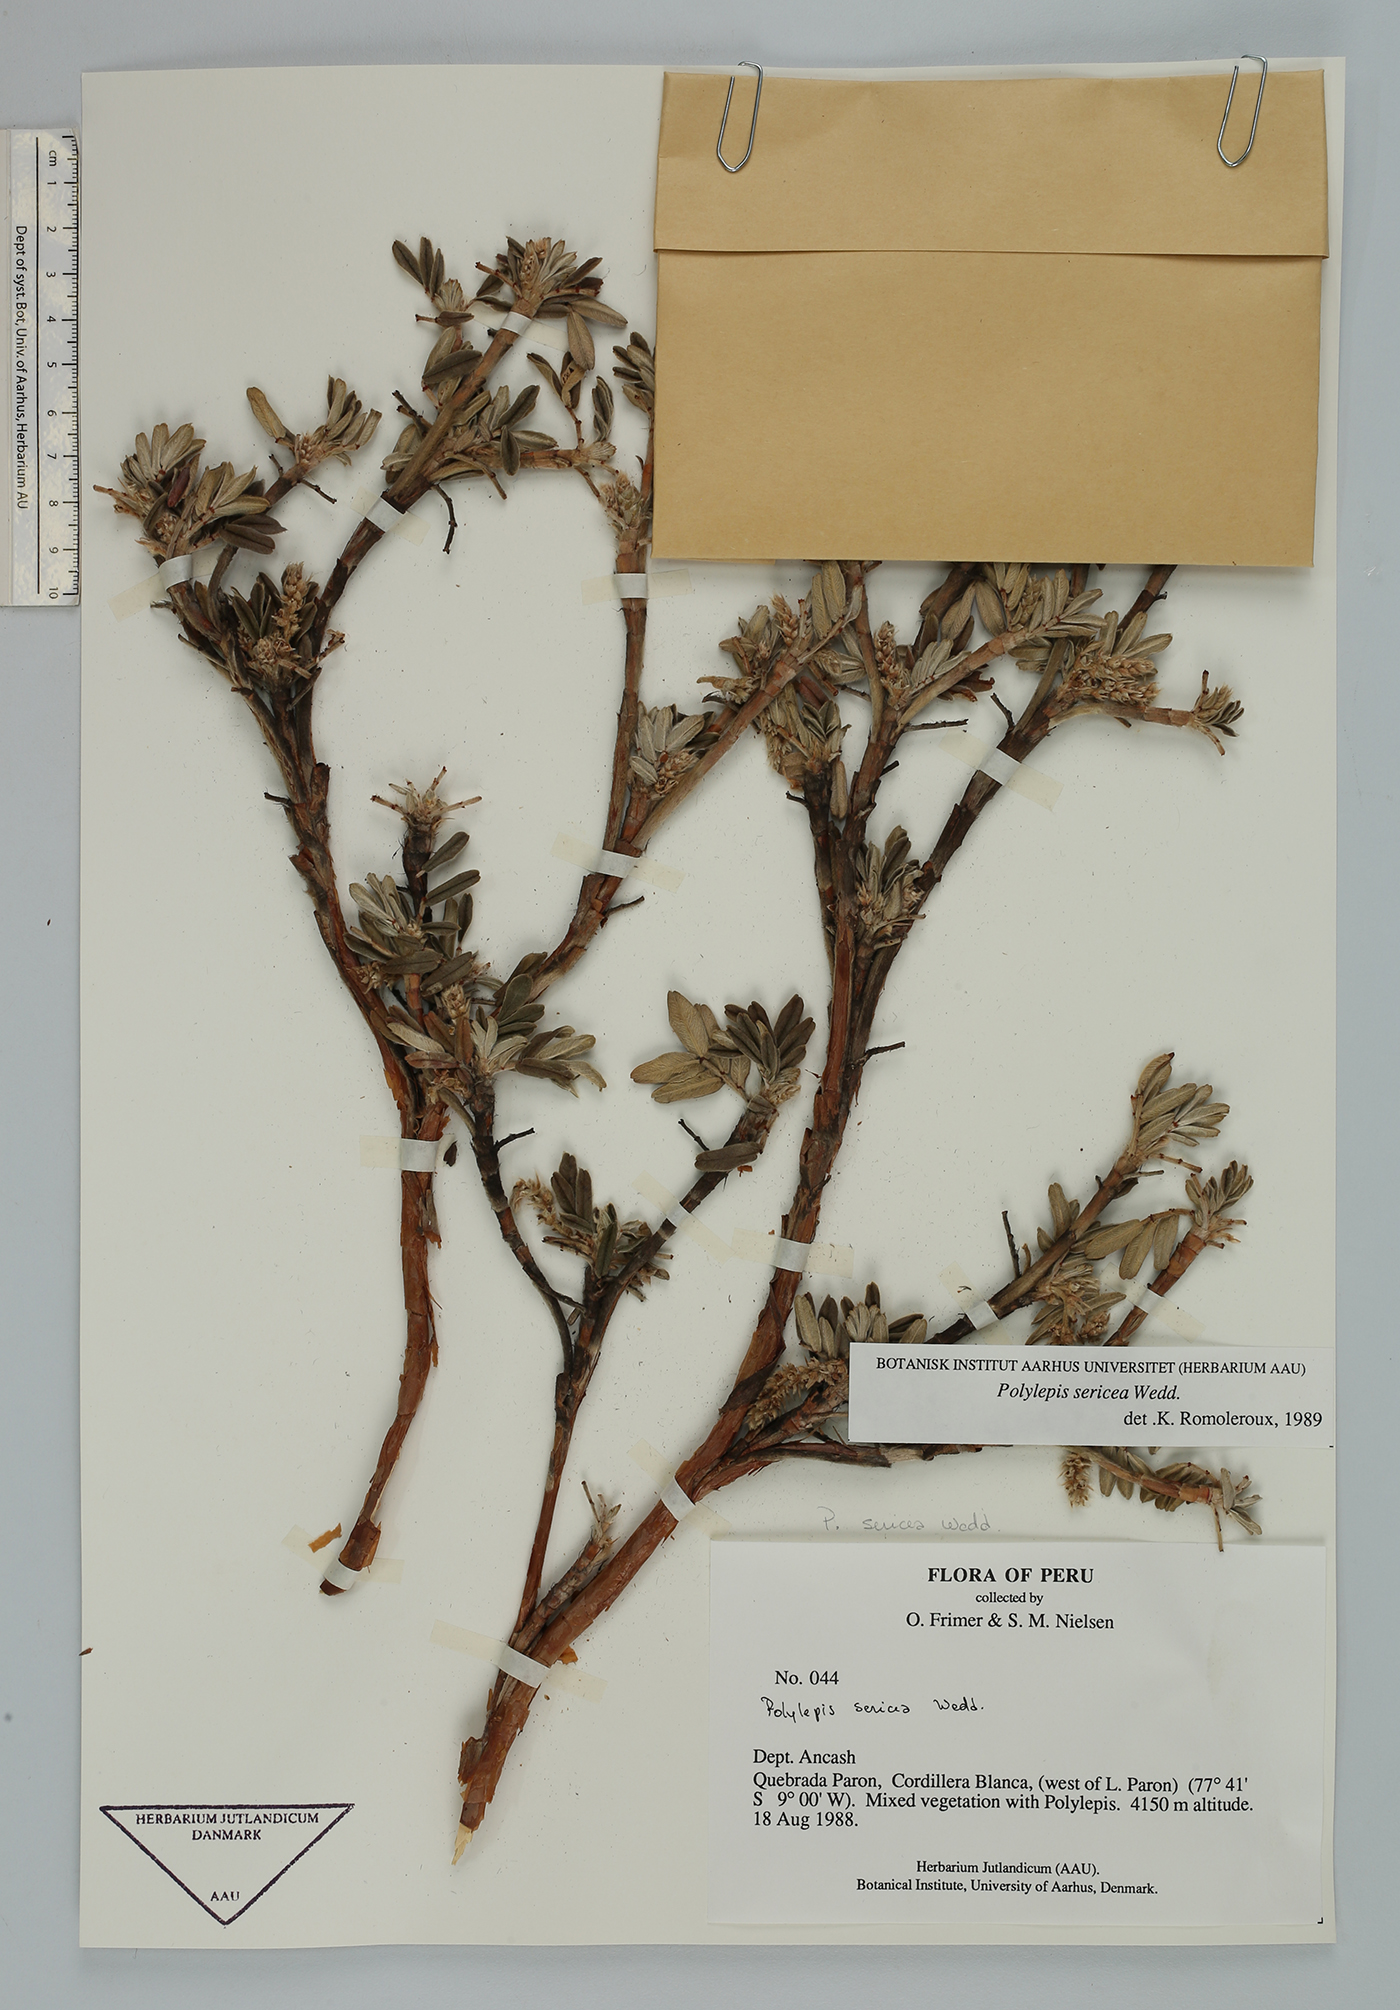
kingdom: Plantae
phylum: Tracheophyta
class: Magnoliopsida
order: Rosales
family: Rosaceae
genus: Polylepis
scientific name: Polylepis sericea
